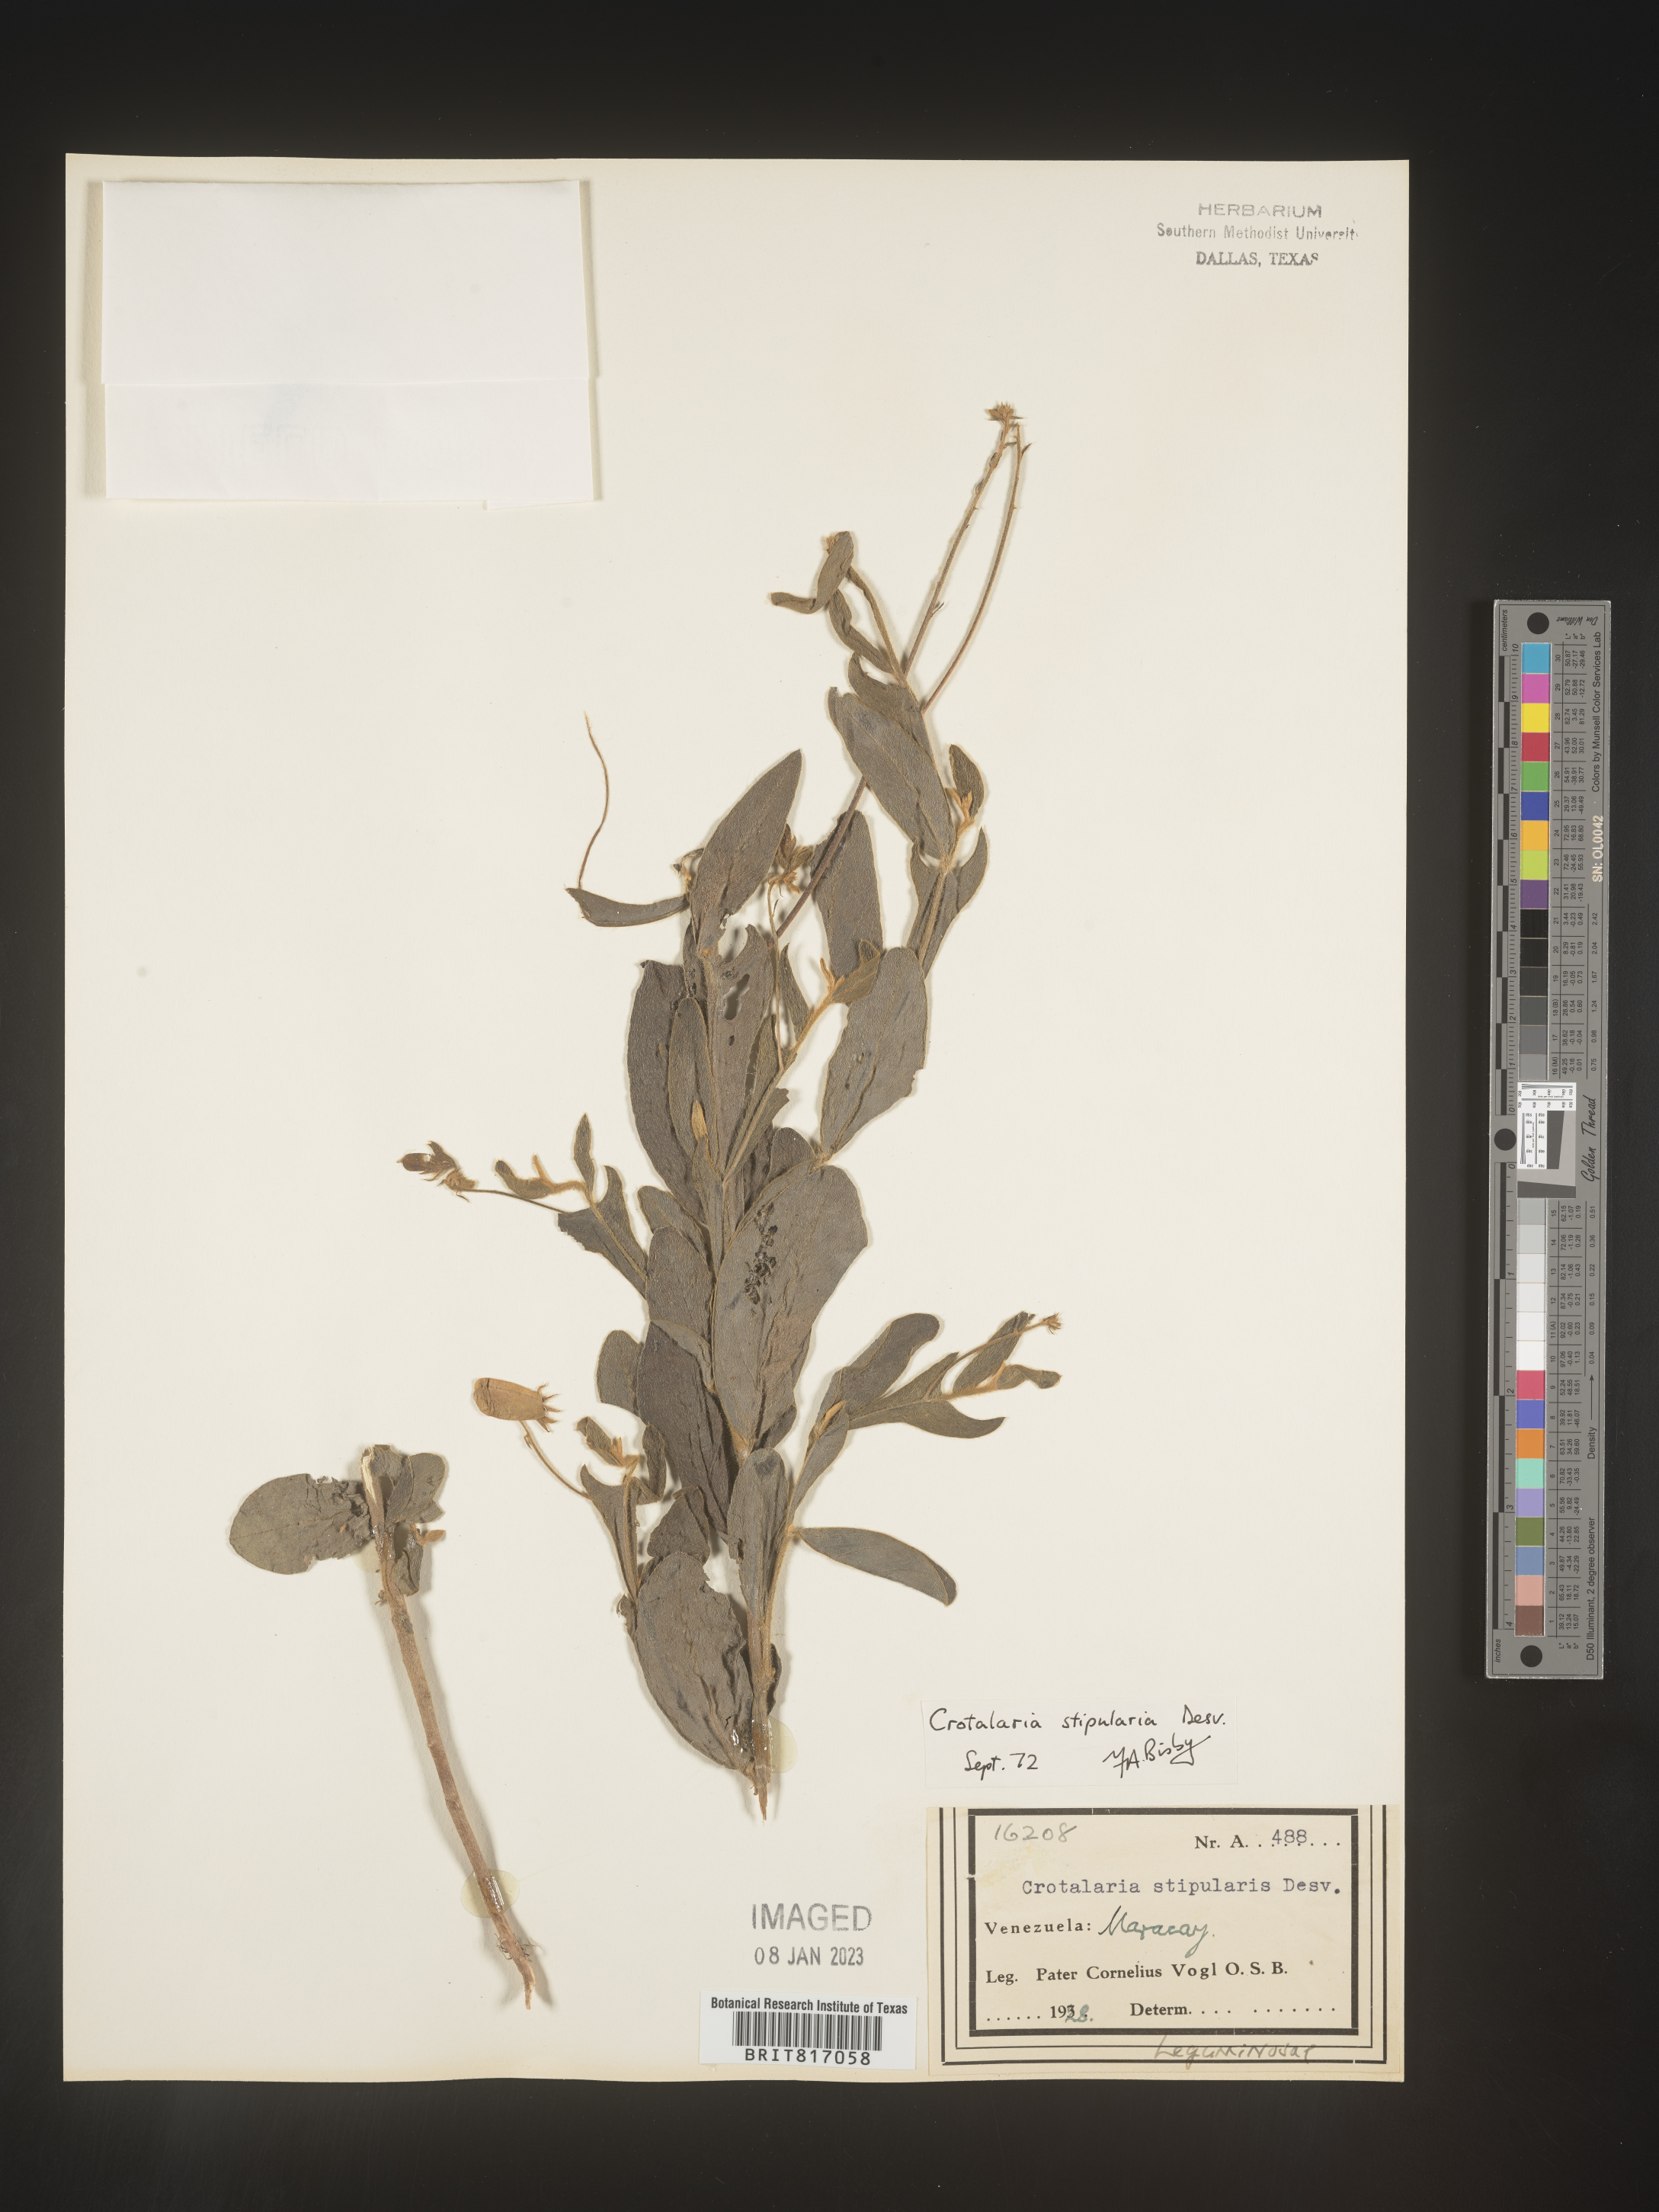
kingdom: Plantae
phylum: Tracheophyta
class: Magnoliopsida
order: Fabales
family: Fabaceae
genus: Crotalaria
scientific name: Crotalaria
